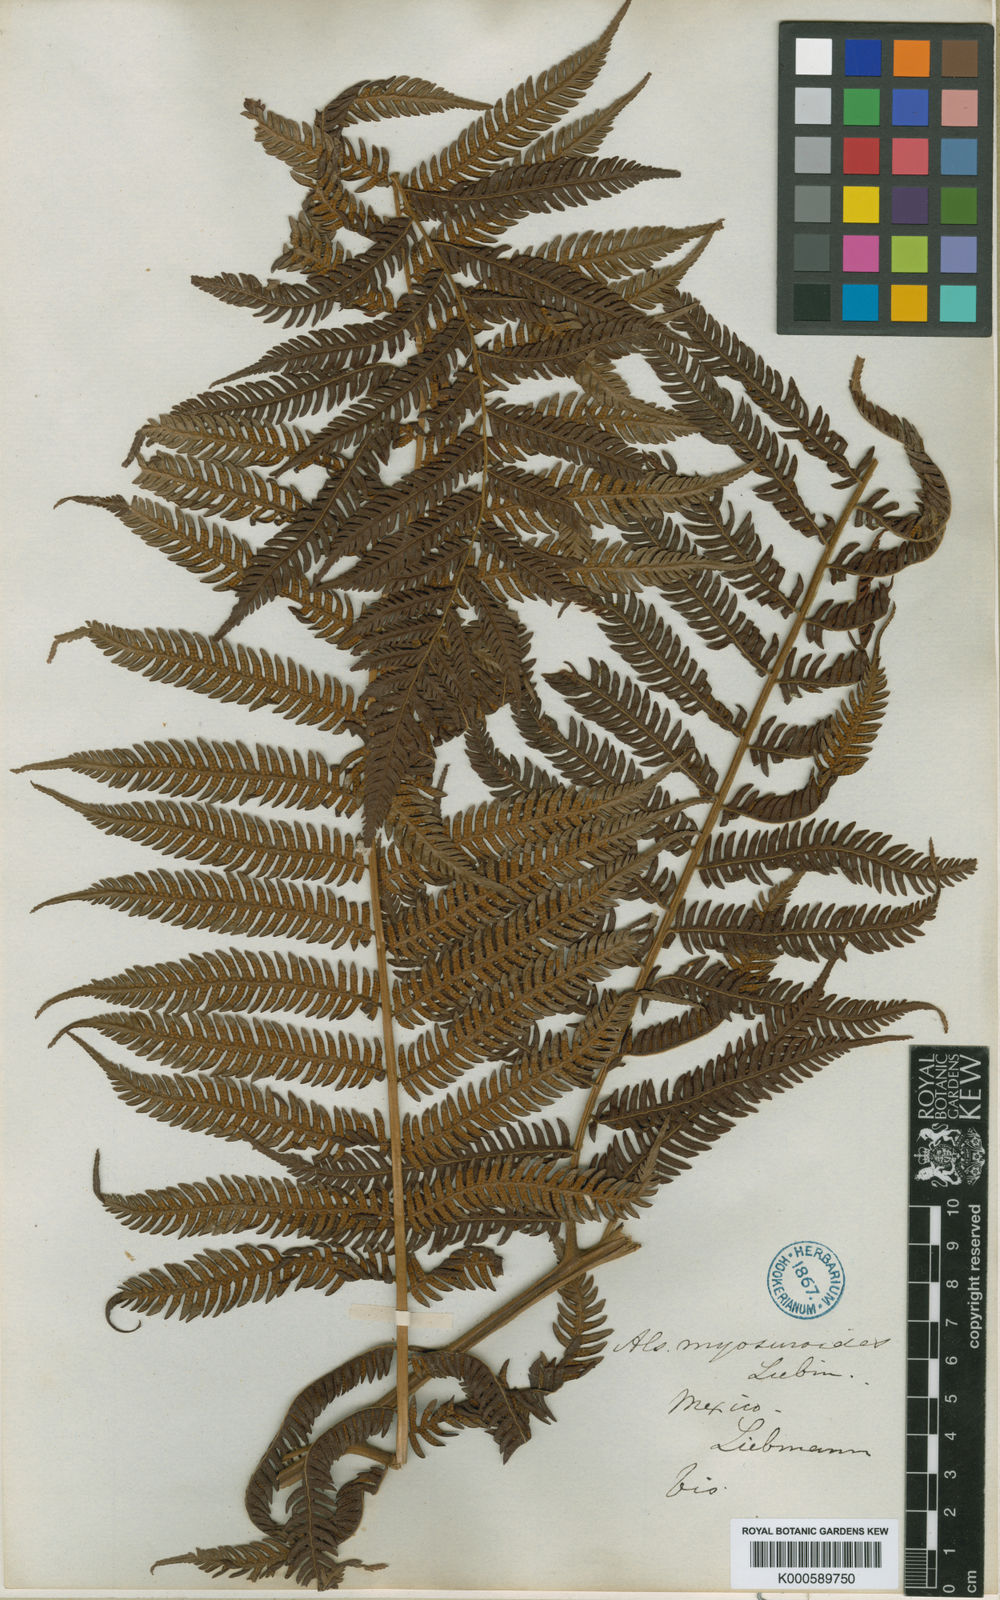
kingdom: Plantae
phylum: Tracheophyta
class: Polypodiopsida
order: Cyatheales
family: Cyatheaceae
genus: Sphaeropteris
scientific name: Sphaeropteris myosuroides
